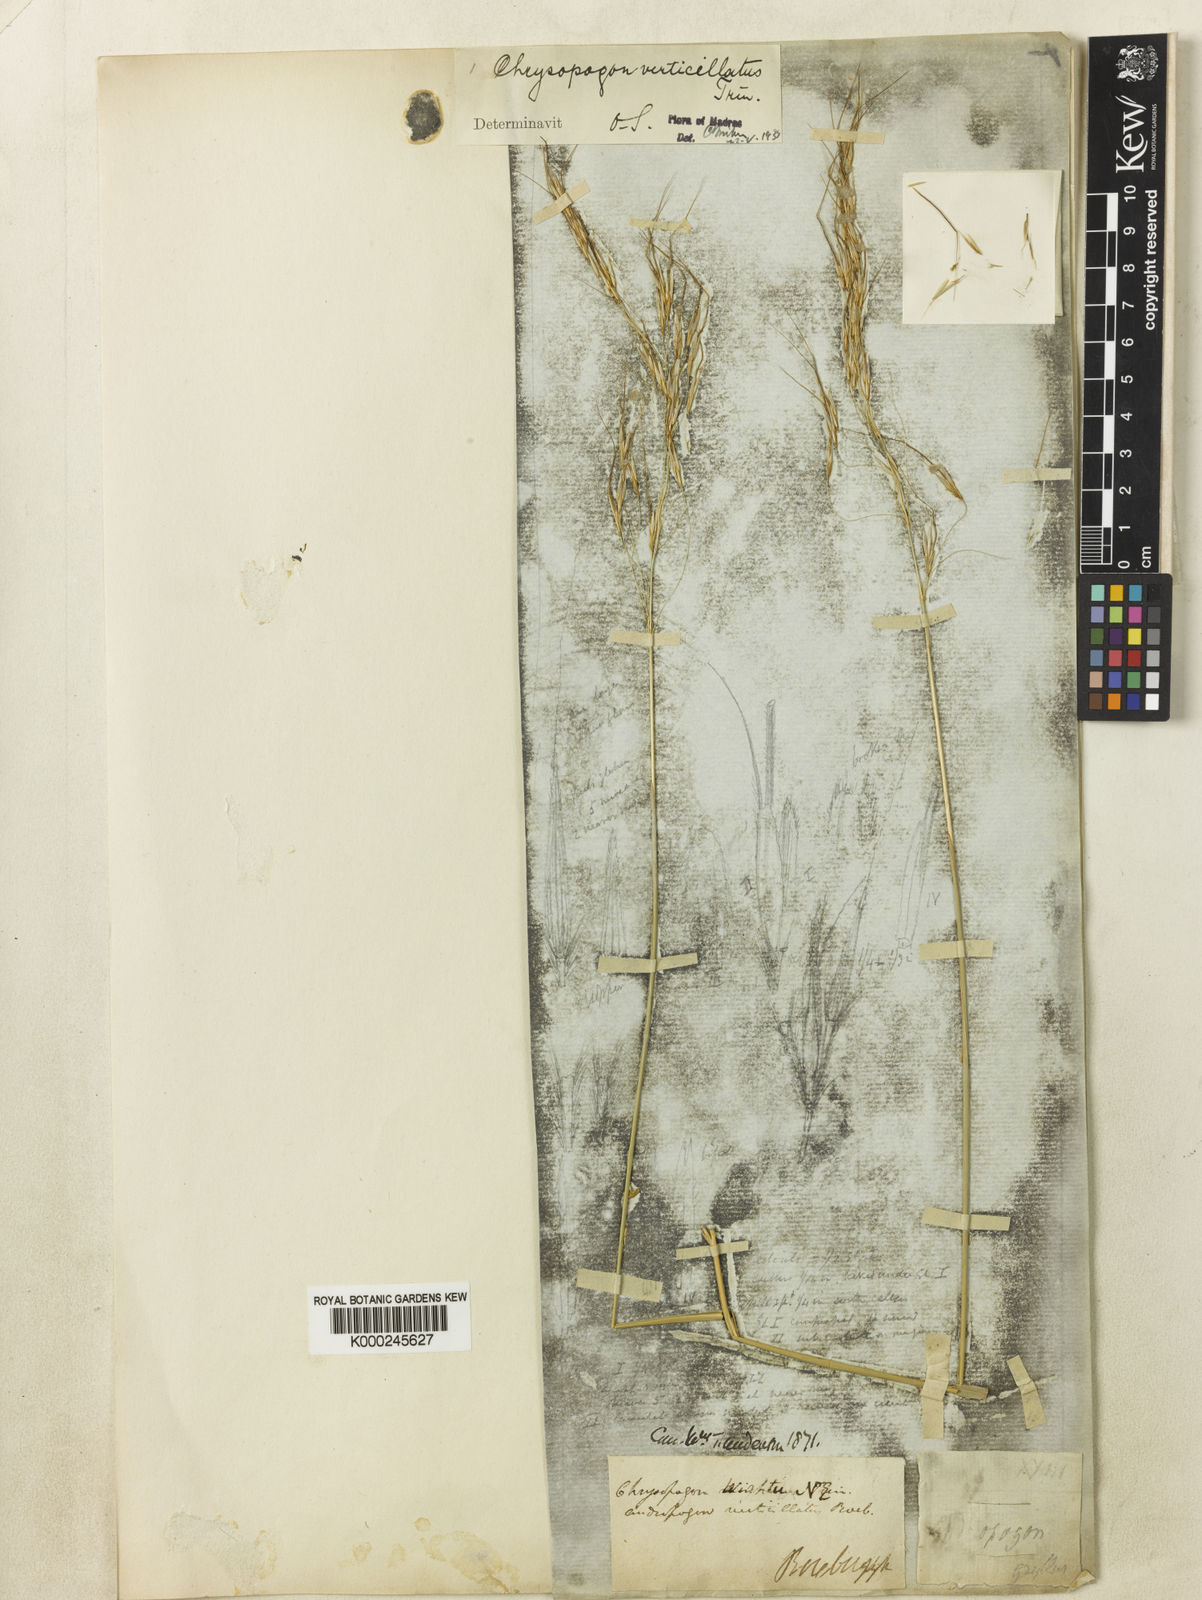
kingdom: Plantae
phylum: Tracheophyta
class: Liliopsida
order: Poales
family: Poaceae
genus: Chrysopogon
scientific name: Chrysopogon verticillatus
